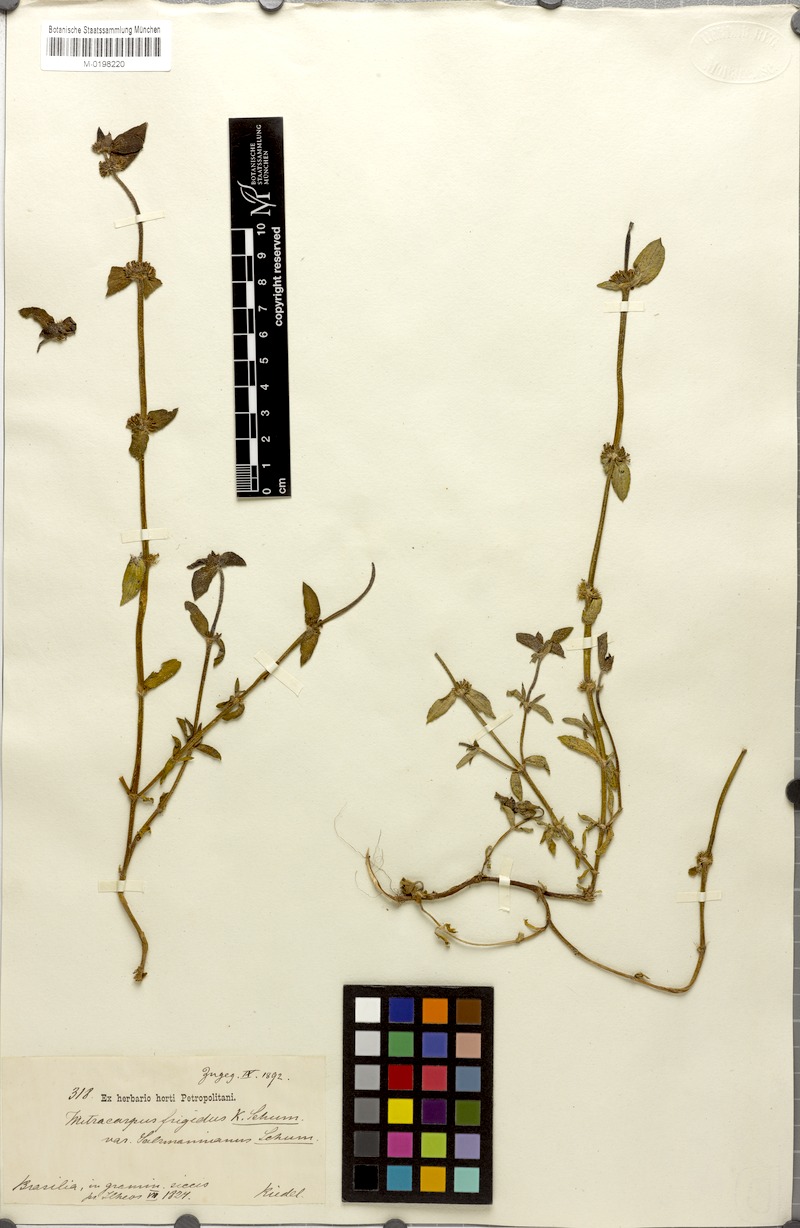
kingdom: Plantae
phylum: Tracheophyta
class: Magnoliopsida
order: Gentianales
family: Rubiaceae
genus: Mitracarpus
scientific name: Mitracarpus salzmannianus
